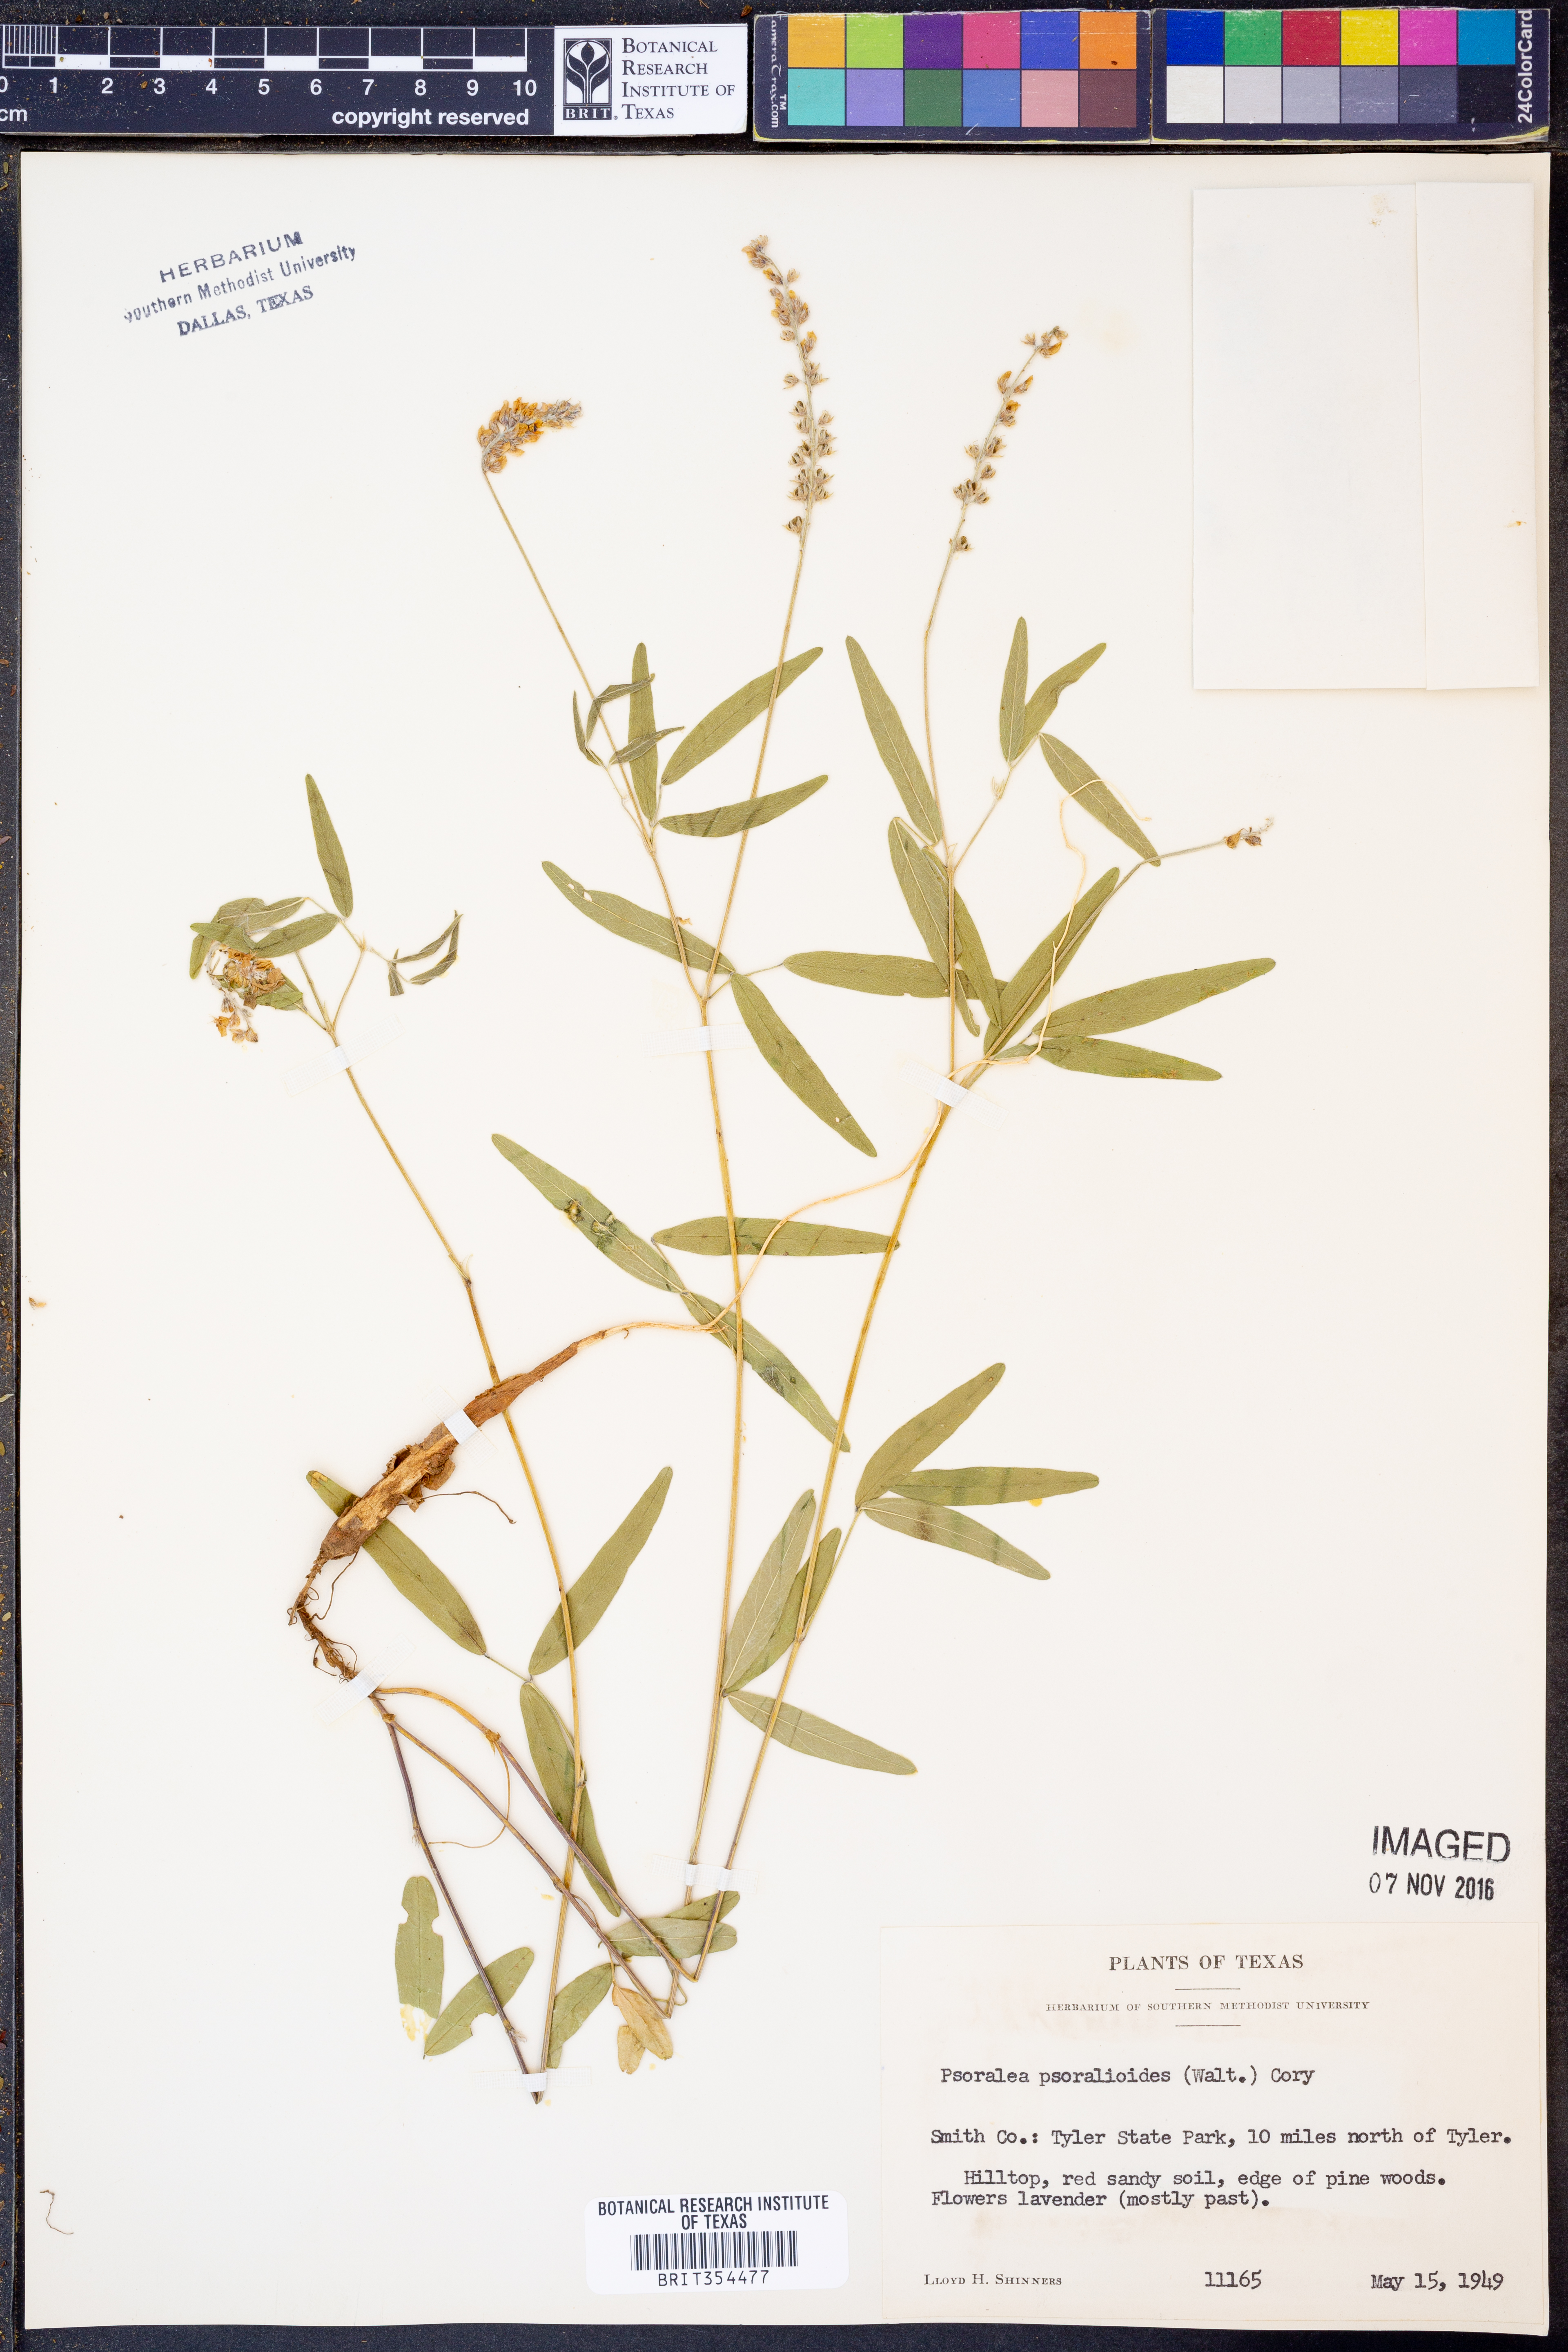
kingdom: Plantae
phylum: Tracheophyta
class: Magnoliopsida
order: Fabales
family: Fabaceae
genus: Orbexilum
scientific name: Orbexilum psoralioides
